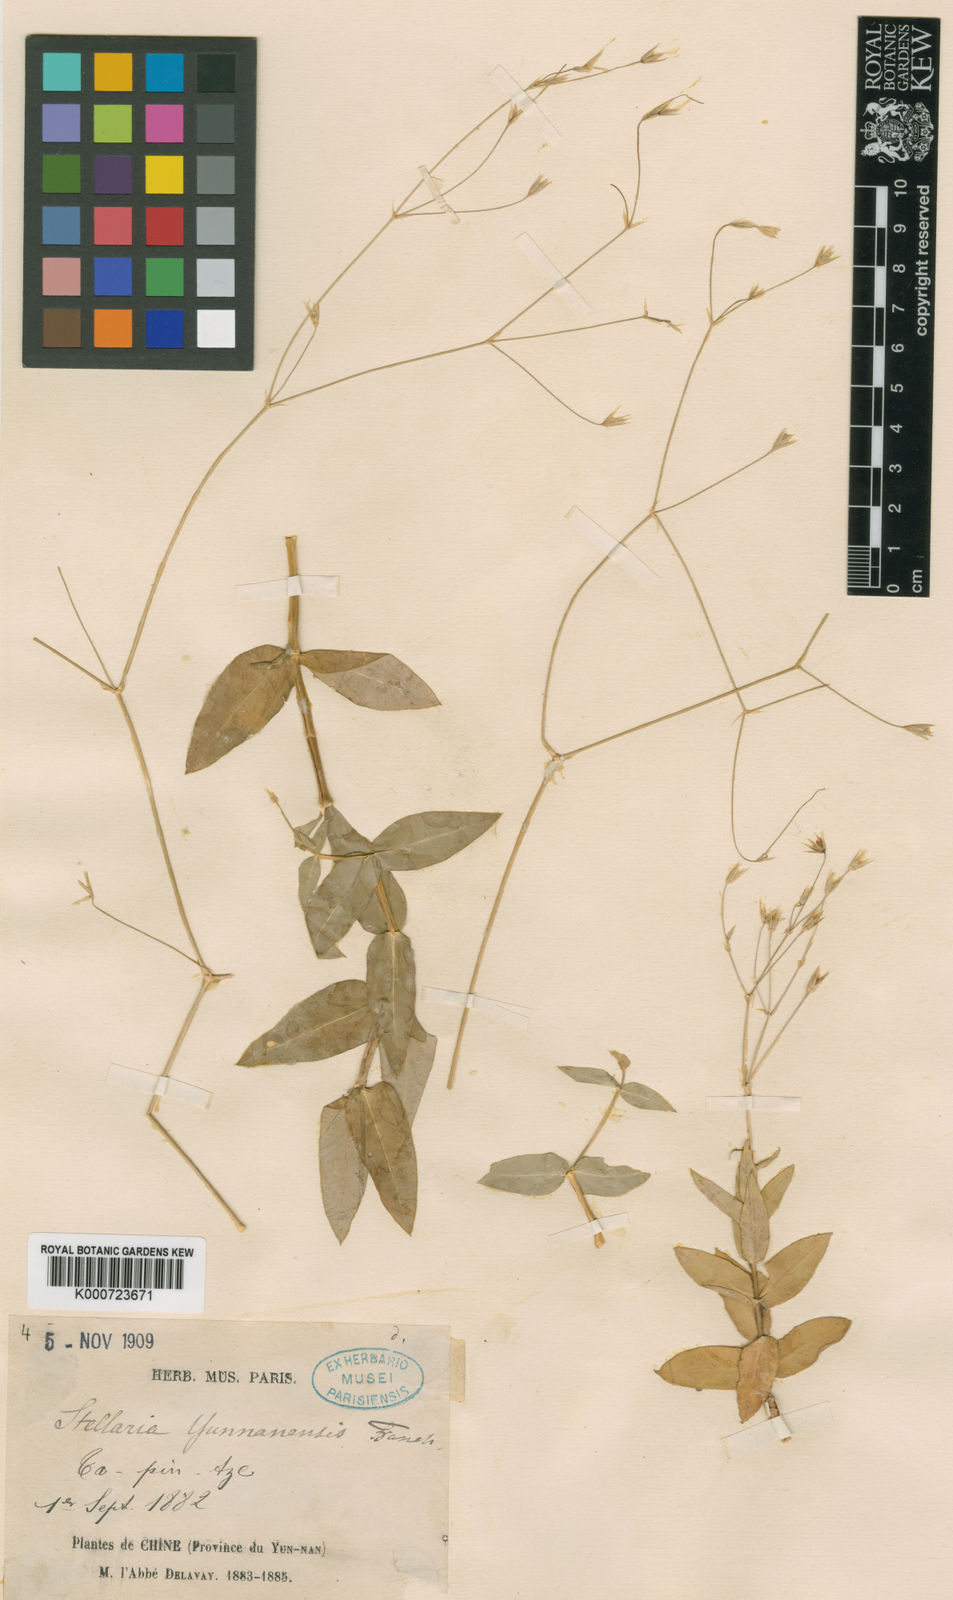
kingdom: Plantae
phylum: Tracheophyta
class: Magnoliopsida
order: Caryophyllales
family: Caryophyllaceae
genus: Stellaria
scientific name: Stellaria yunnanensis
